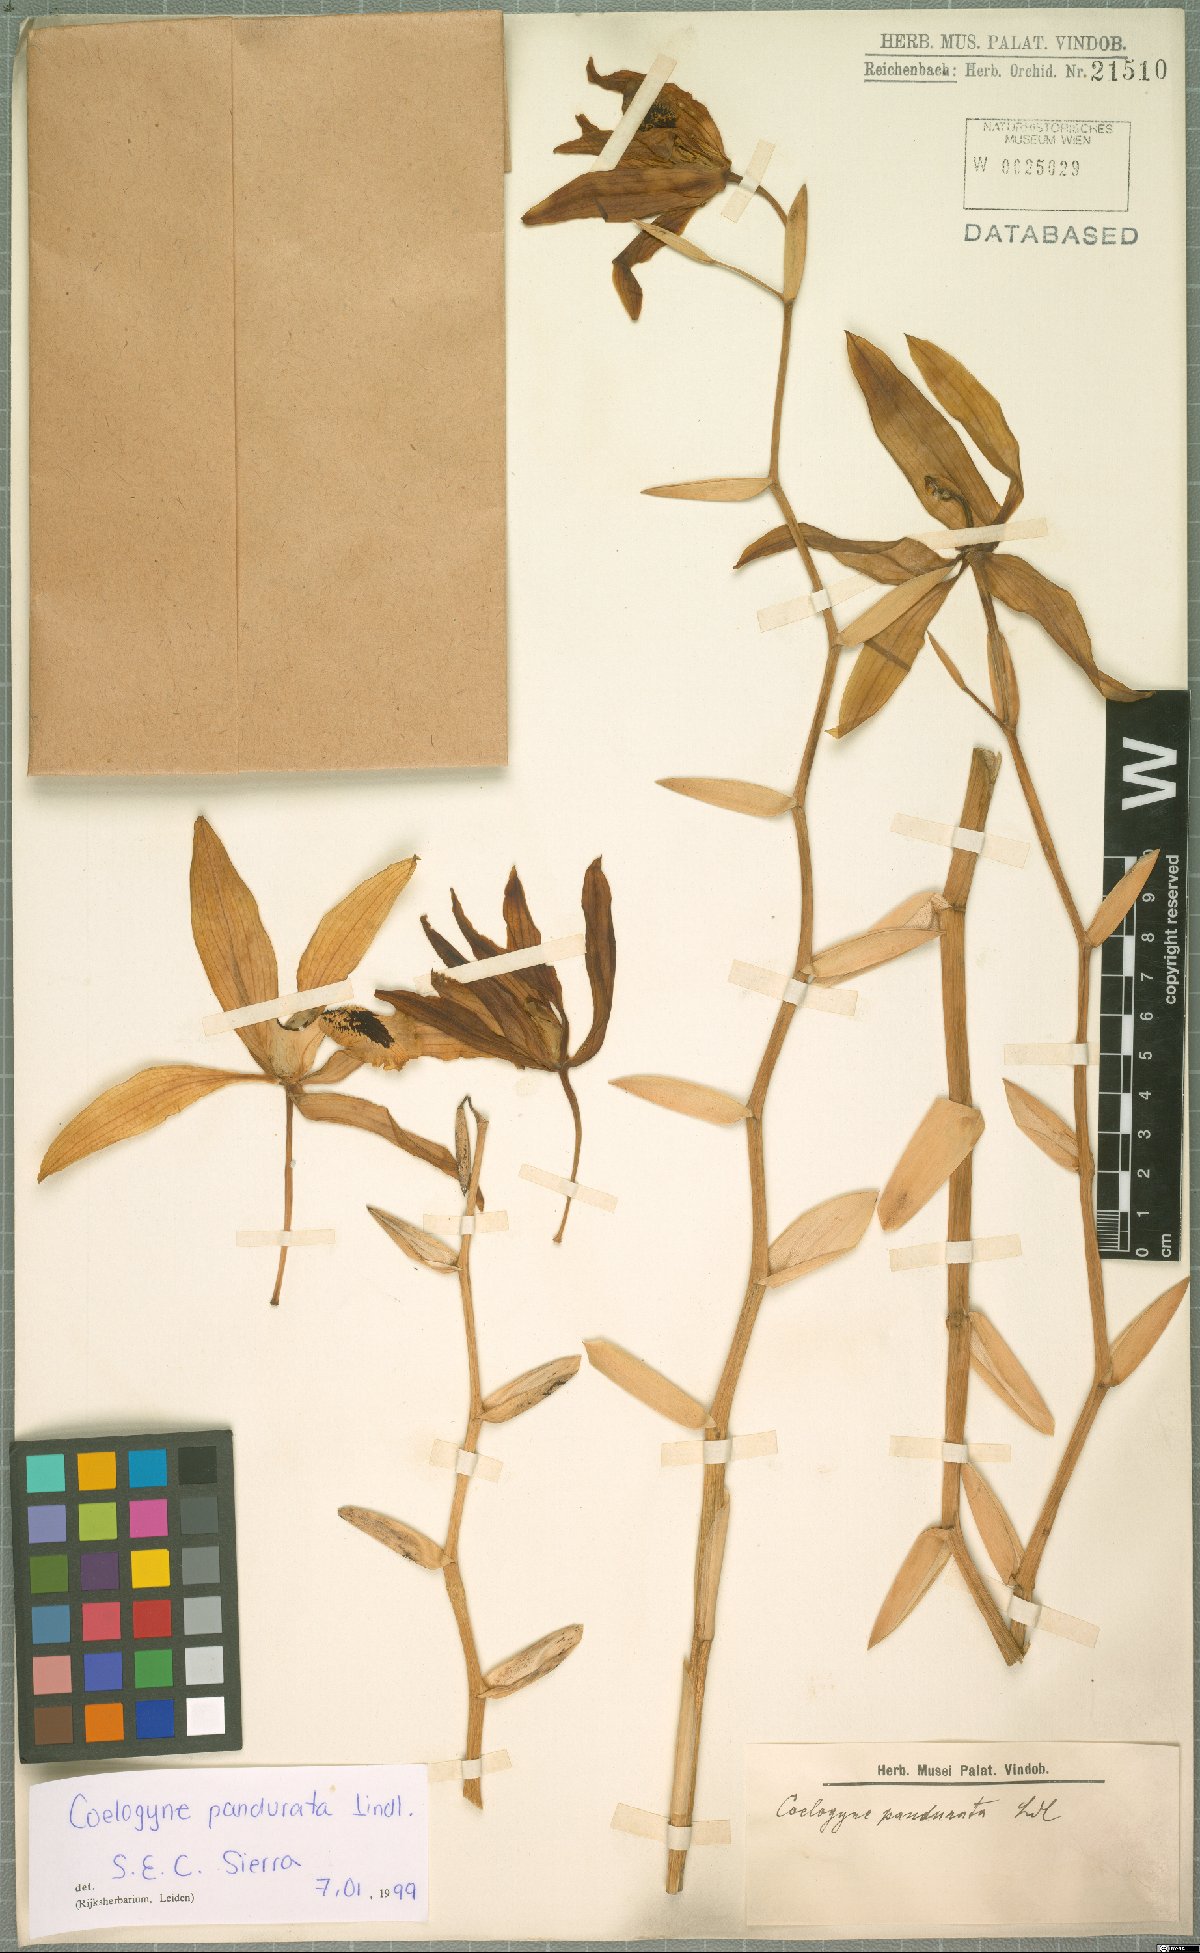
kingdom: Plantae
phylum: Tracheophyta
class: Liliopsida
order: Asparagales
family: Orchidaceae
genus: Coelogyne
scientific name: Coelogyne pandurata
